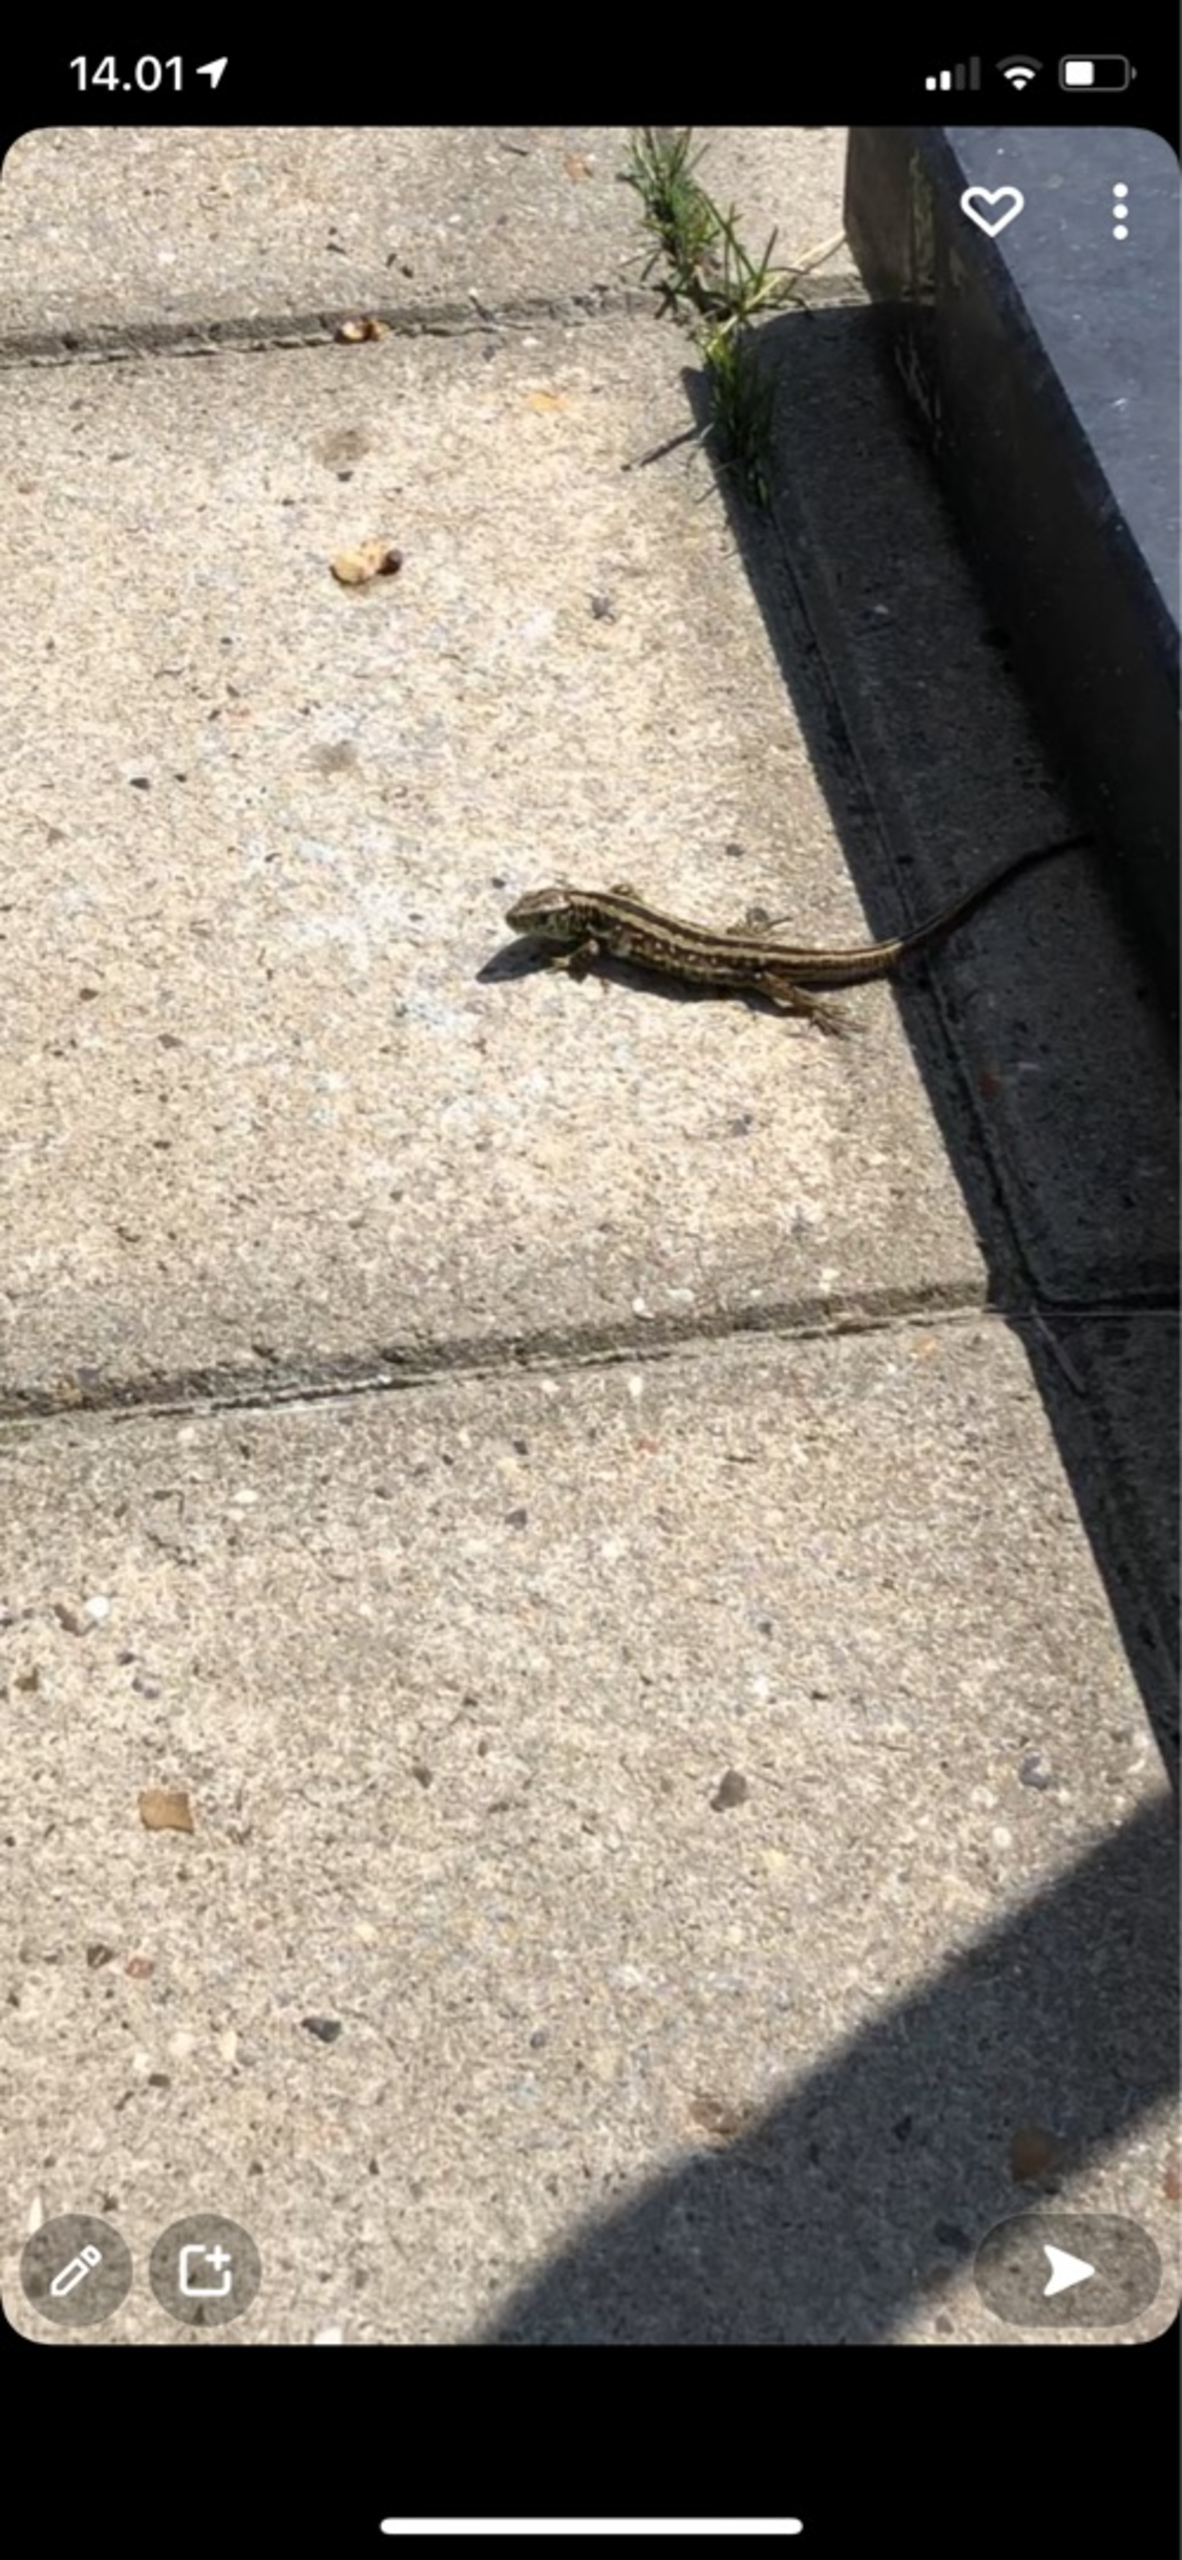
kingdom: Animalia
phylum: Chordata
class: Squamata
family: Lacertidae
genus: Lacerta
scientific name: Lacerta agilis
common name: Markfirben
